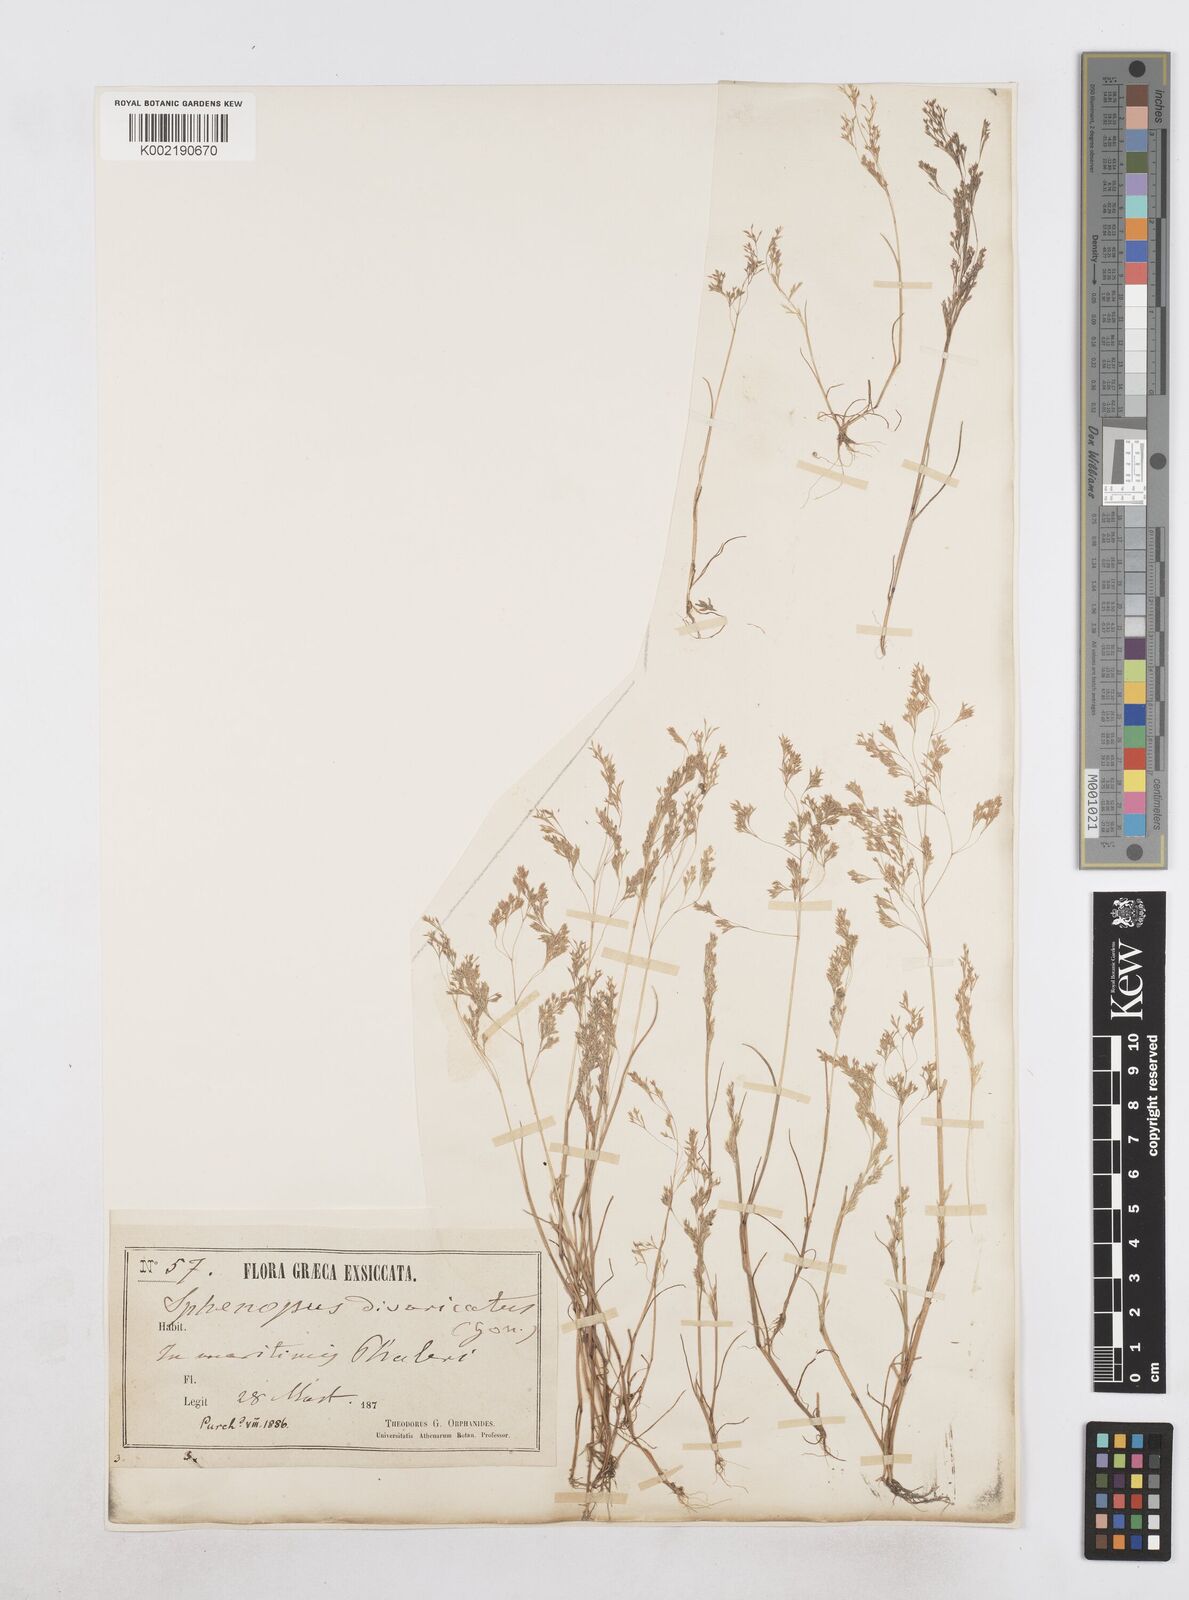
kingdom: Plantae
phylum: Tracheophyta
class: Liliopsida
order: Poales
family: Poaceae
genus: Sphenopus
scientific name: Sphenopus divaricatus
